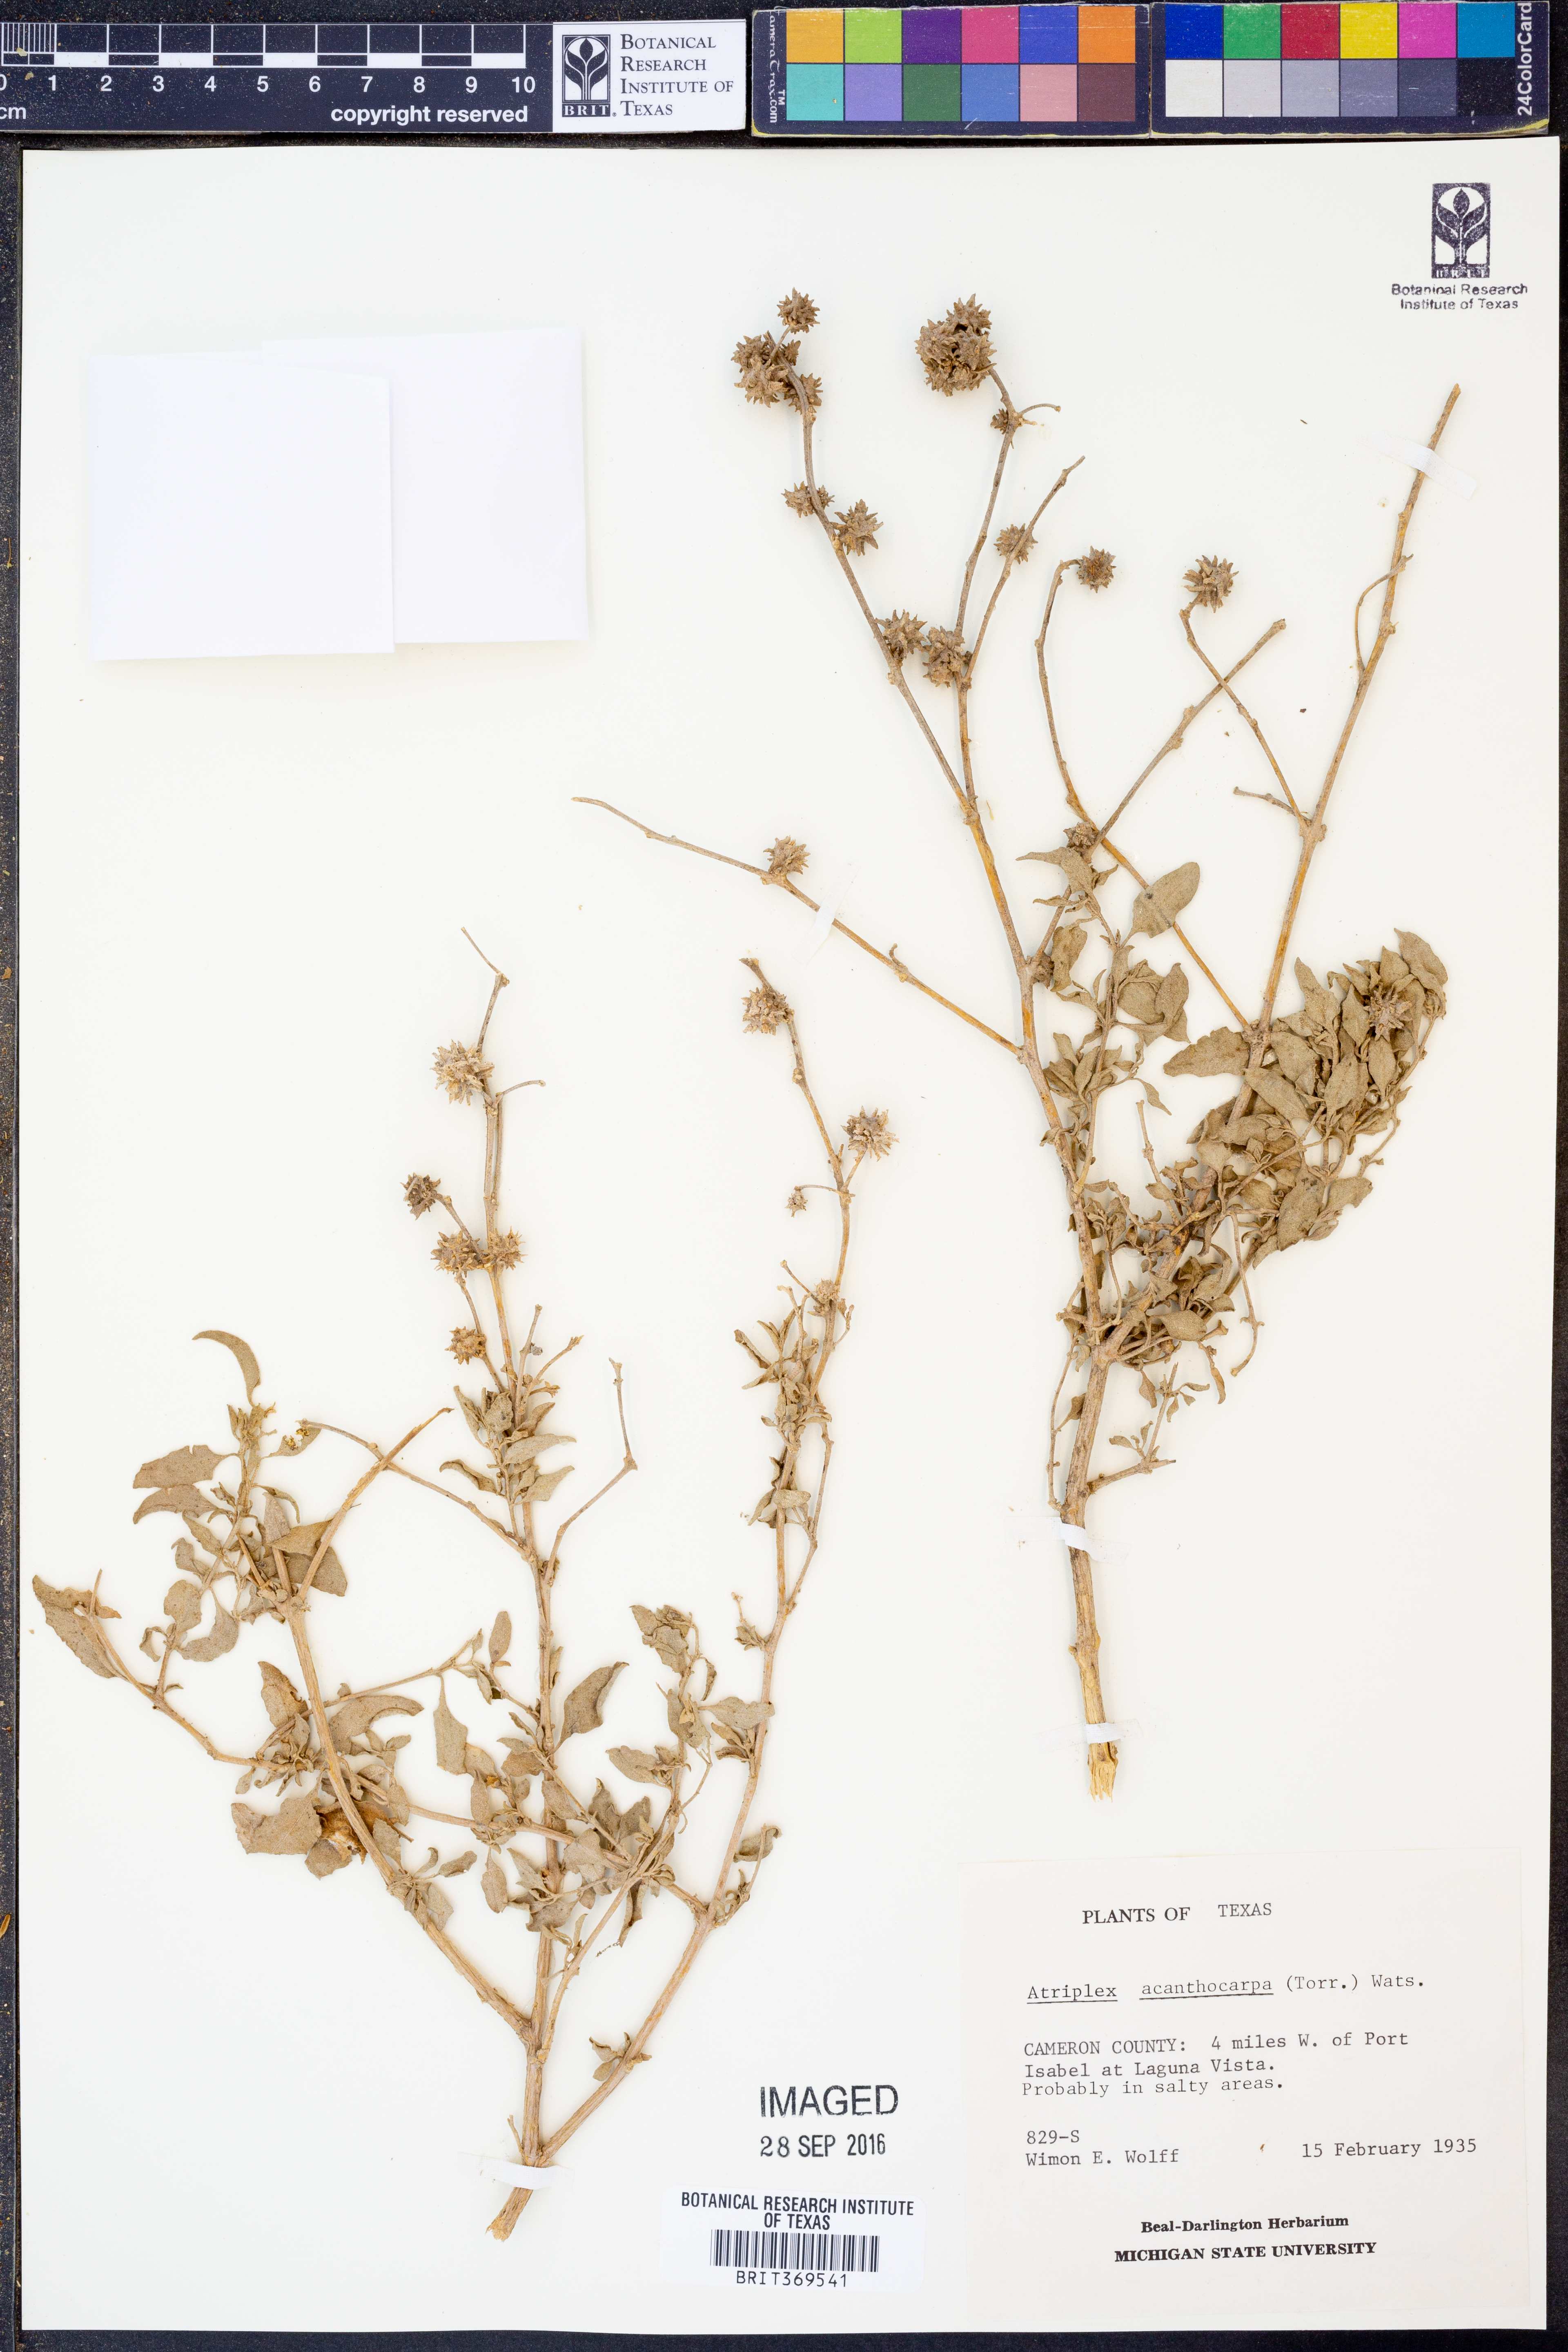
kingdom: Plantae
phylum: Tracheophyta
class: Magnoliopsida
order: Caryophyllales
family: Amaranthaceae
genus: Atriplex
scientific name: Atriplex acanthocarpa
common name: Burscale
